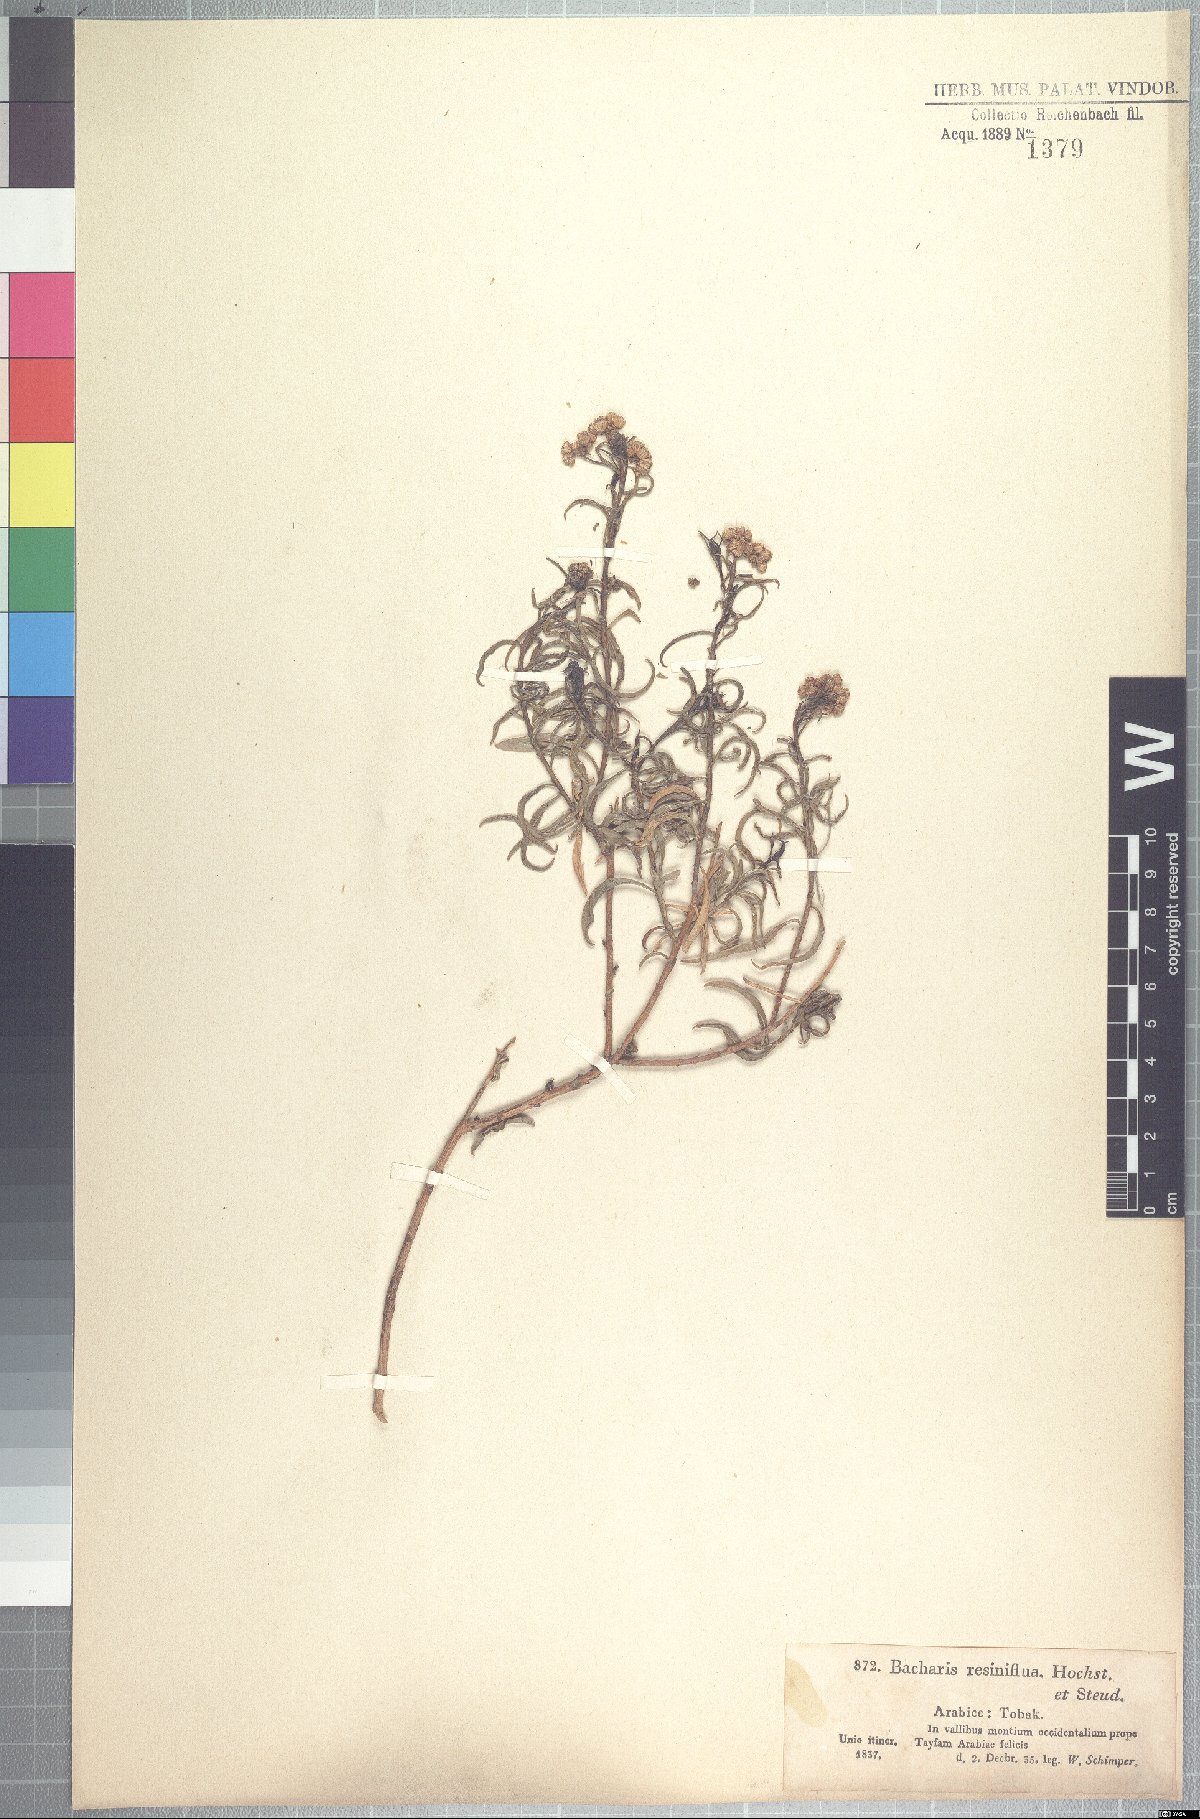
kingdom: Plantae
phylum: Tracheophyta
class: Magnoliopsida
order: Asterales
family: Asteraceae
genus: Psiadia
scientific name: Psiadia punctulata
